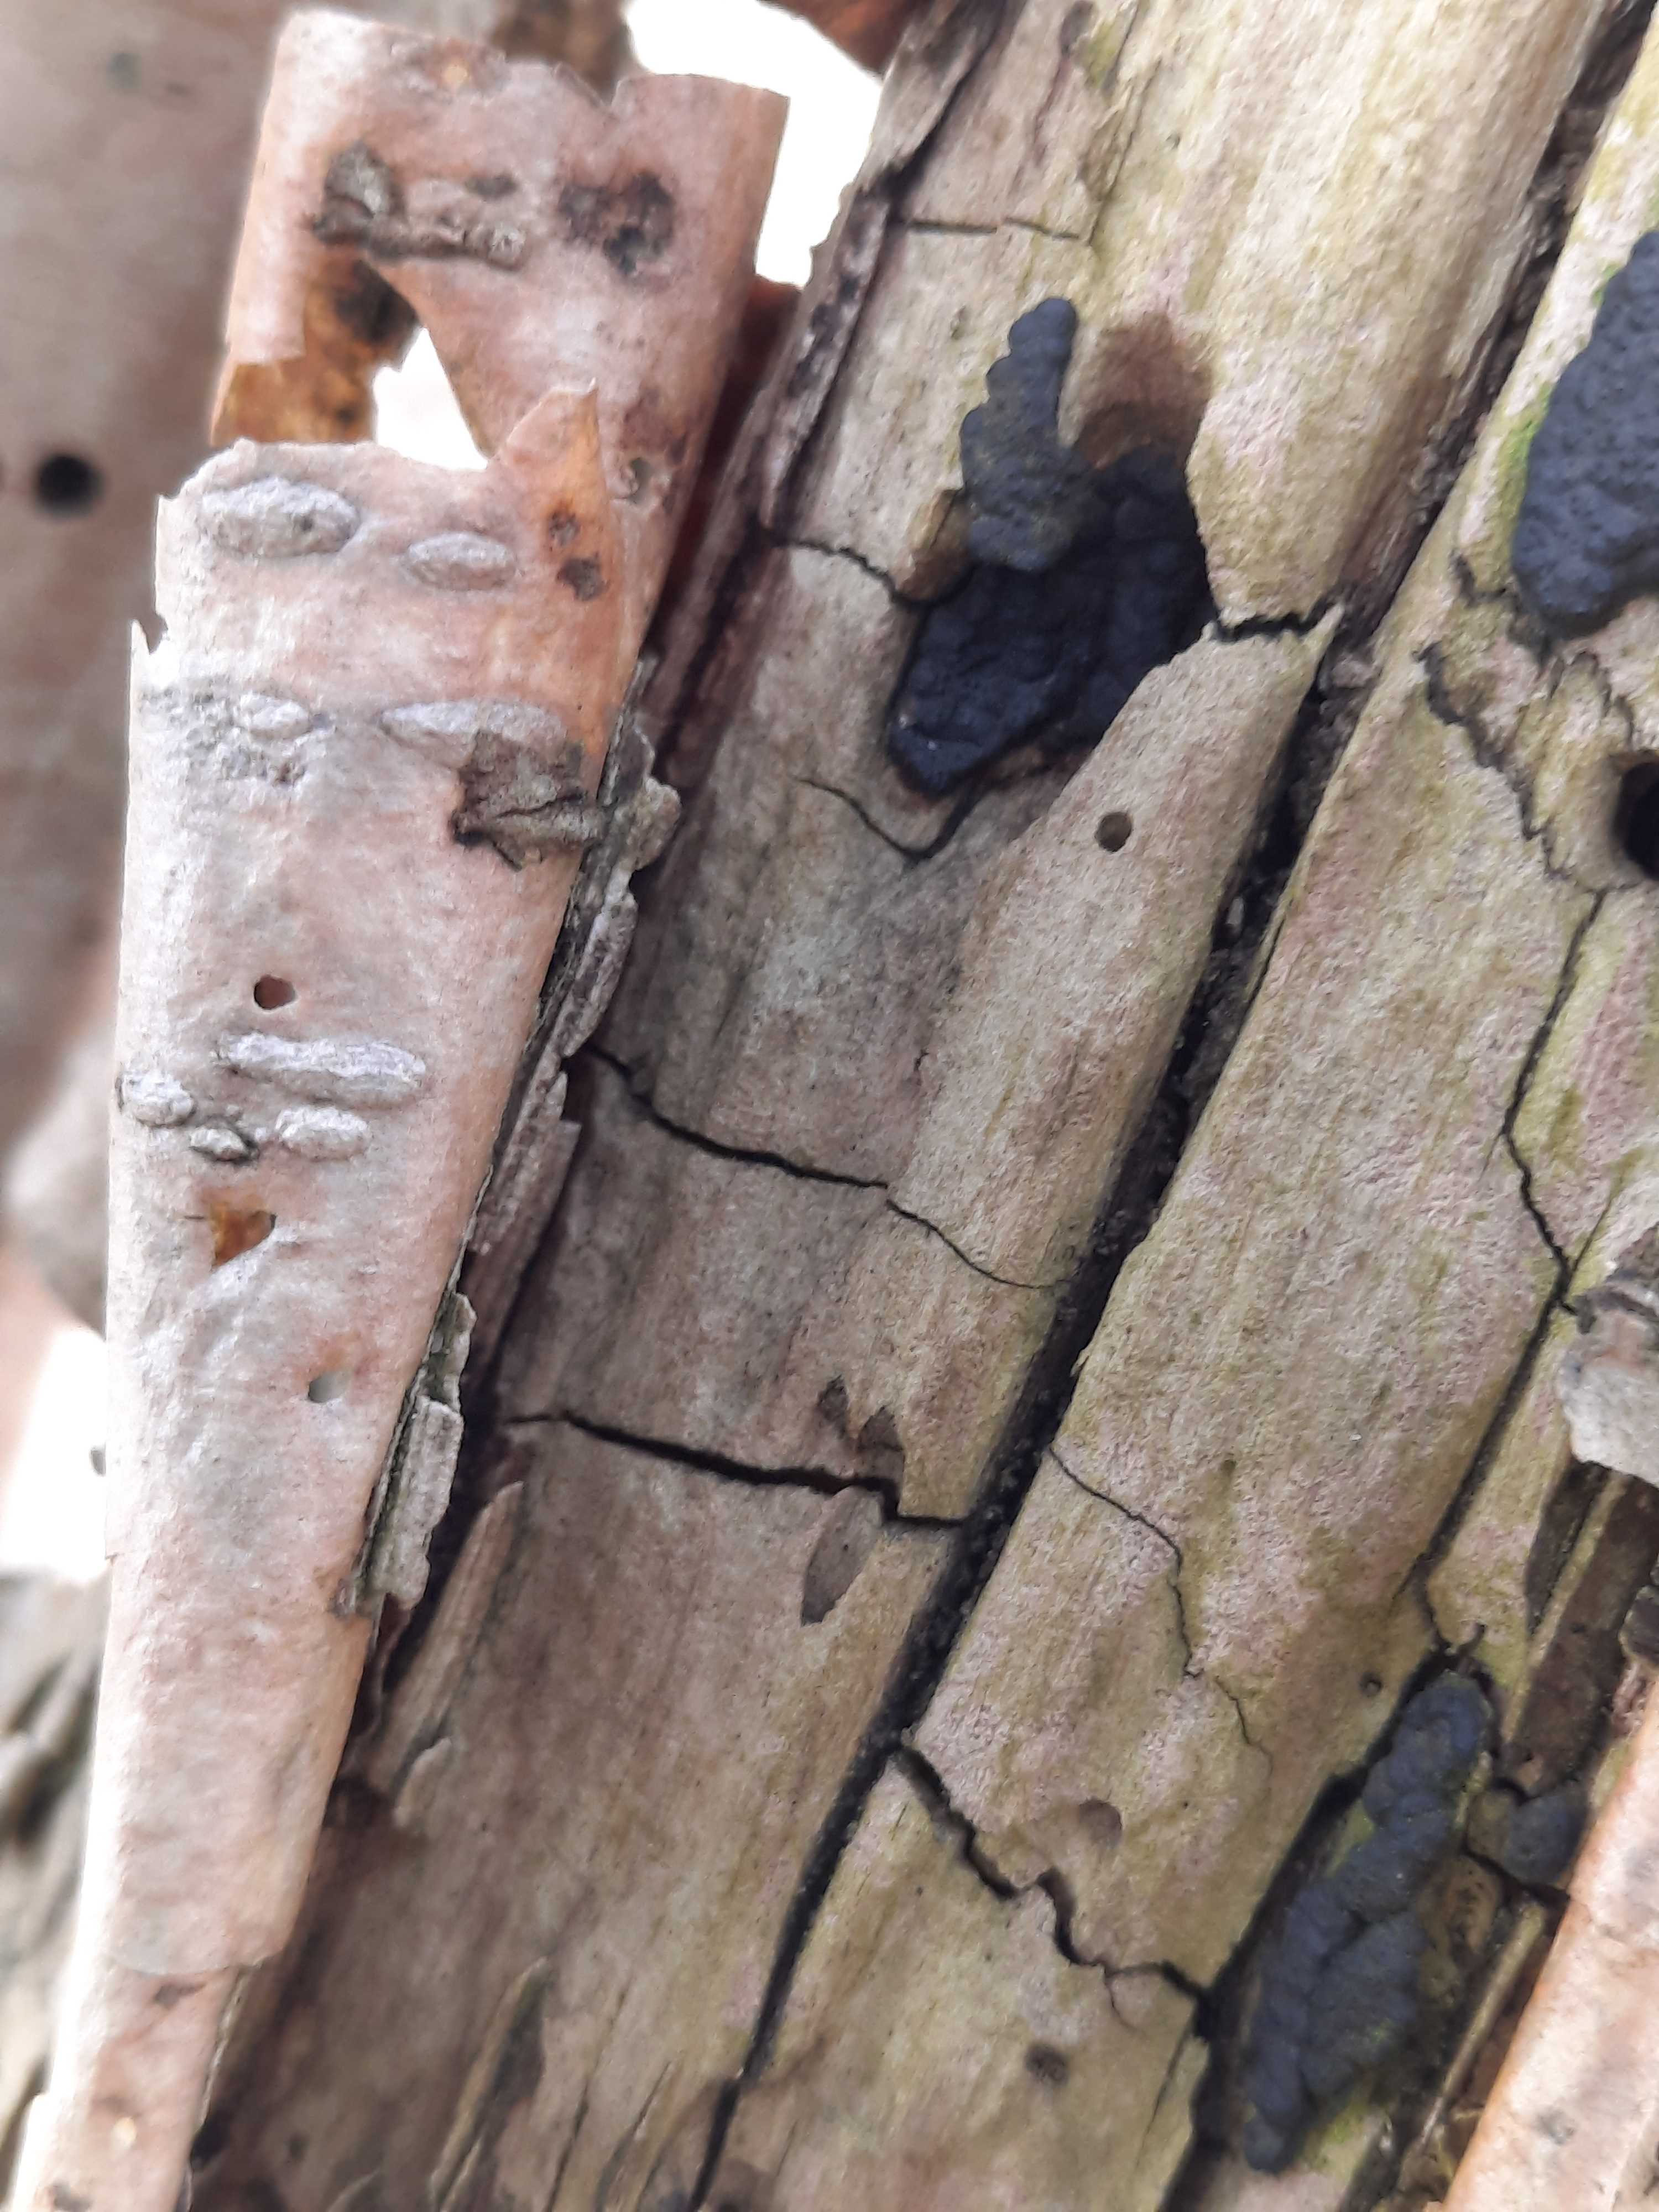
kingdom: Fungi
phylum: Ascomycota
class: Sordariomycetes
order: Xylariales
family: Xylariaceae
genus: Nemania
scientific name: Nemania
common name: kuldyne
